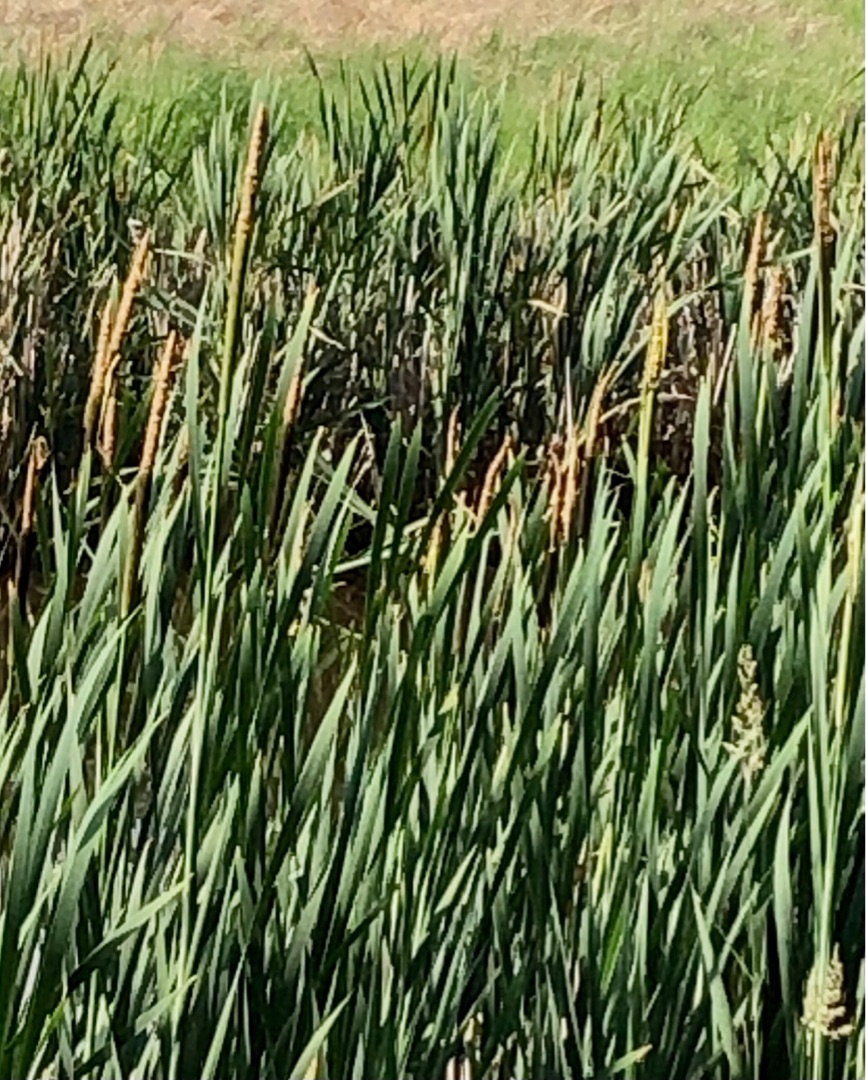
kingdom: Plantae
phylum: Tracheophyta
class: Liliopsida
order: Poales
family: Typhaceae
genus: Typha
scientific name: Typha latifolia
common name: Bredbladet dunhammer
